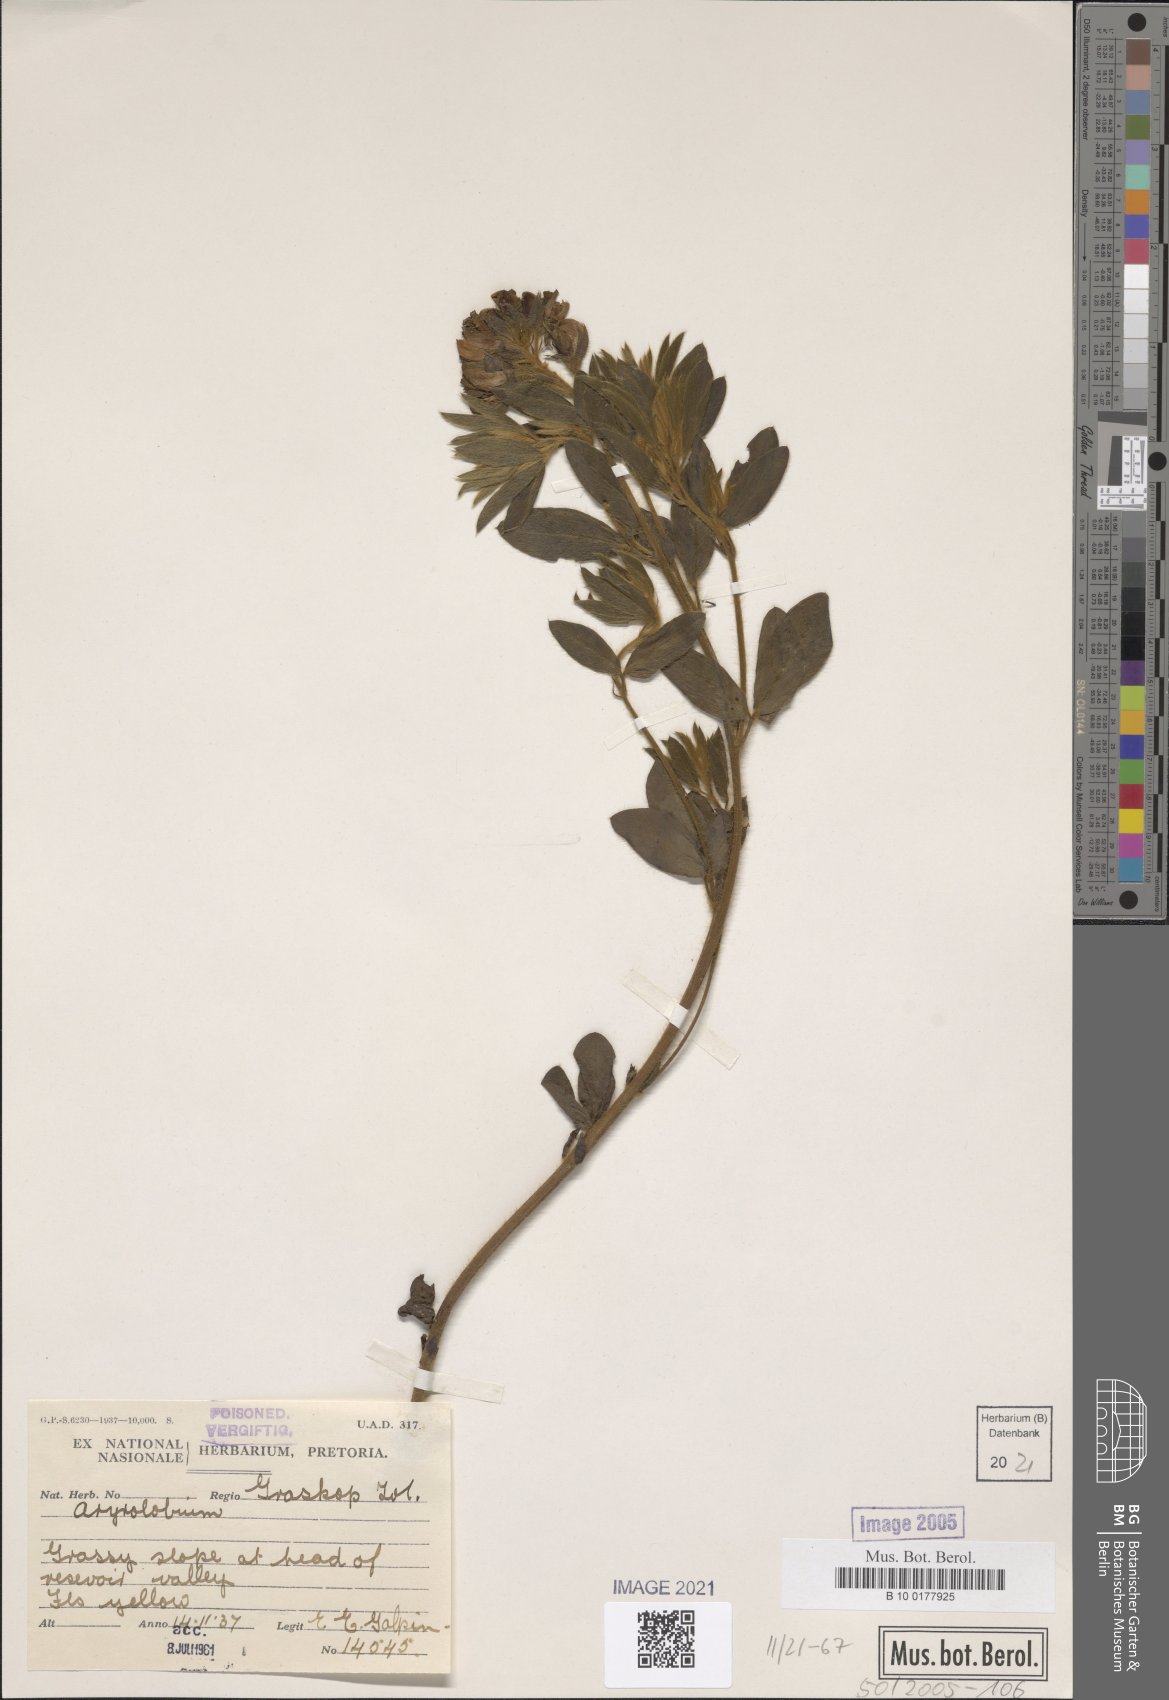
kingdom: Plantae
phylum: Tracheophyta
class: Magnoliopsida
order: Fabales
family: Fabaceae
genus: Argyrolobium
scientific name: Argyrolobium
